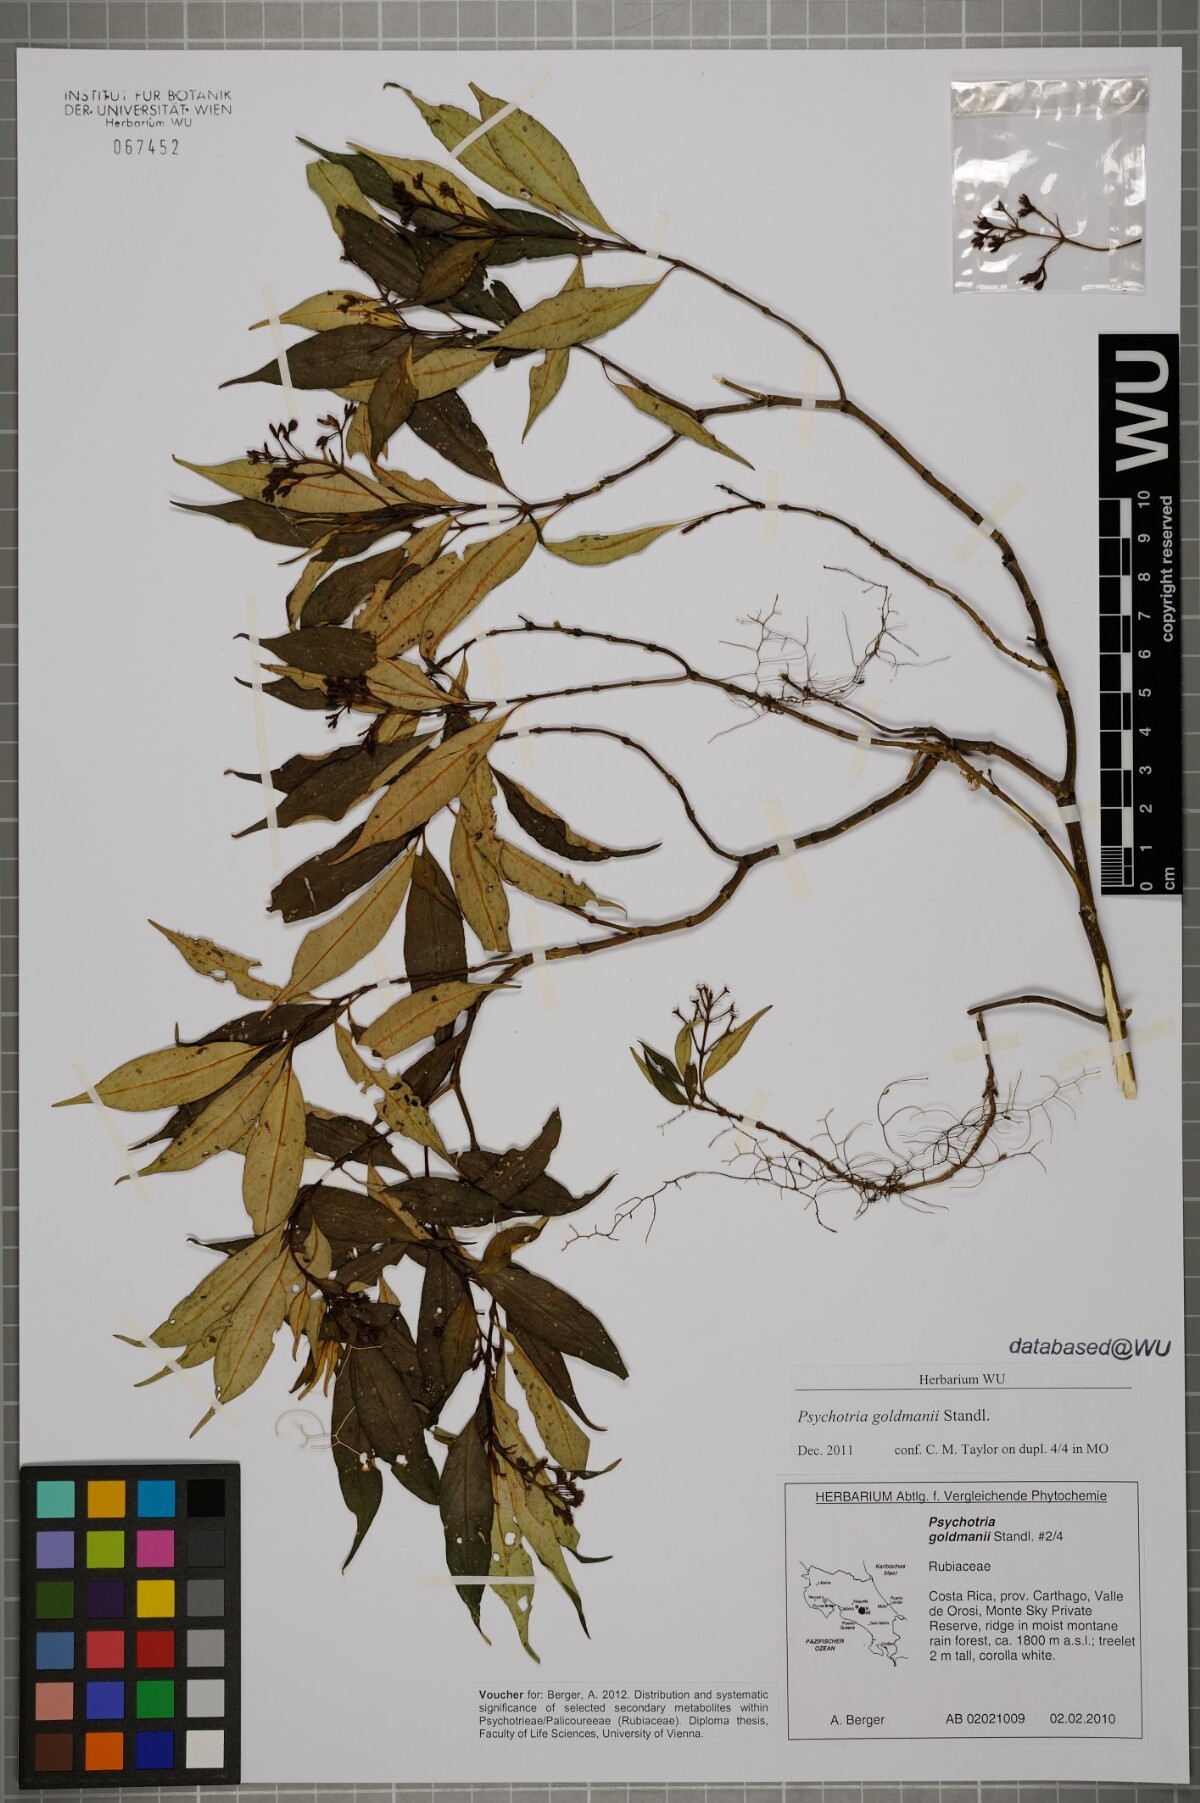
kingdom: Plantae
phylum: Tracheophyta
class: Magnoliopsida
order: Gentianales
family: Rubiaceae
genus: Palicourea
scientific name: Palicourea goldmanii
